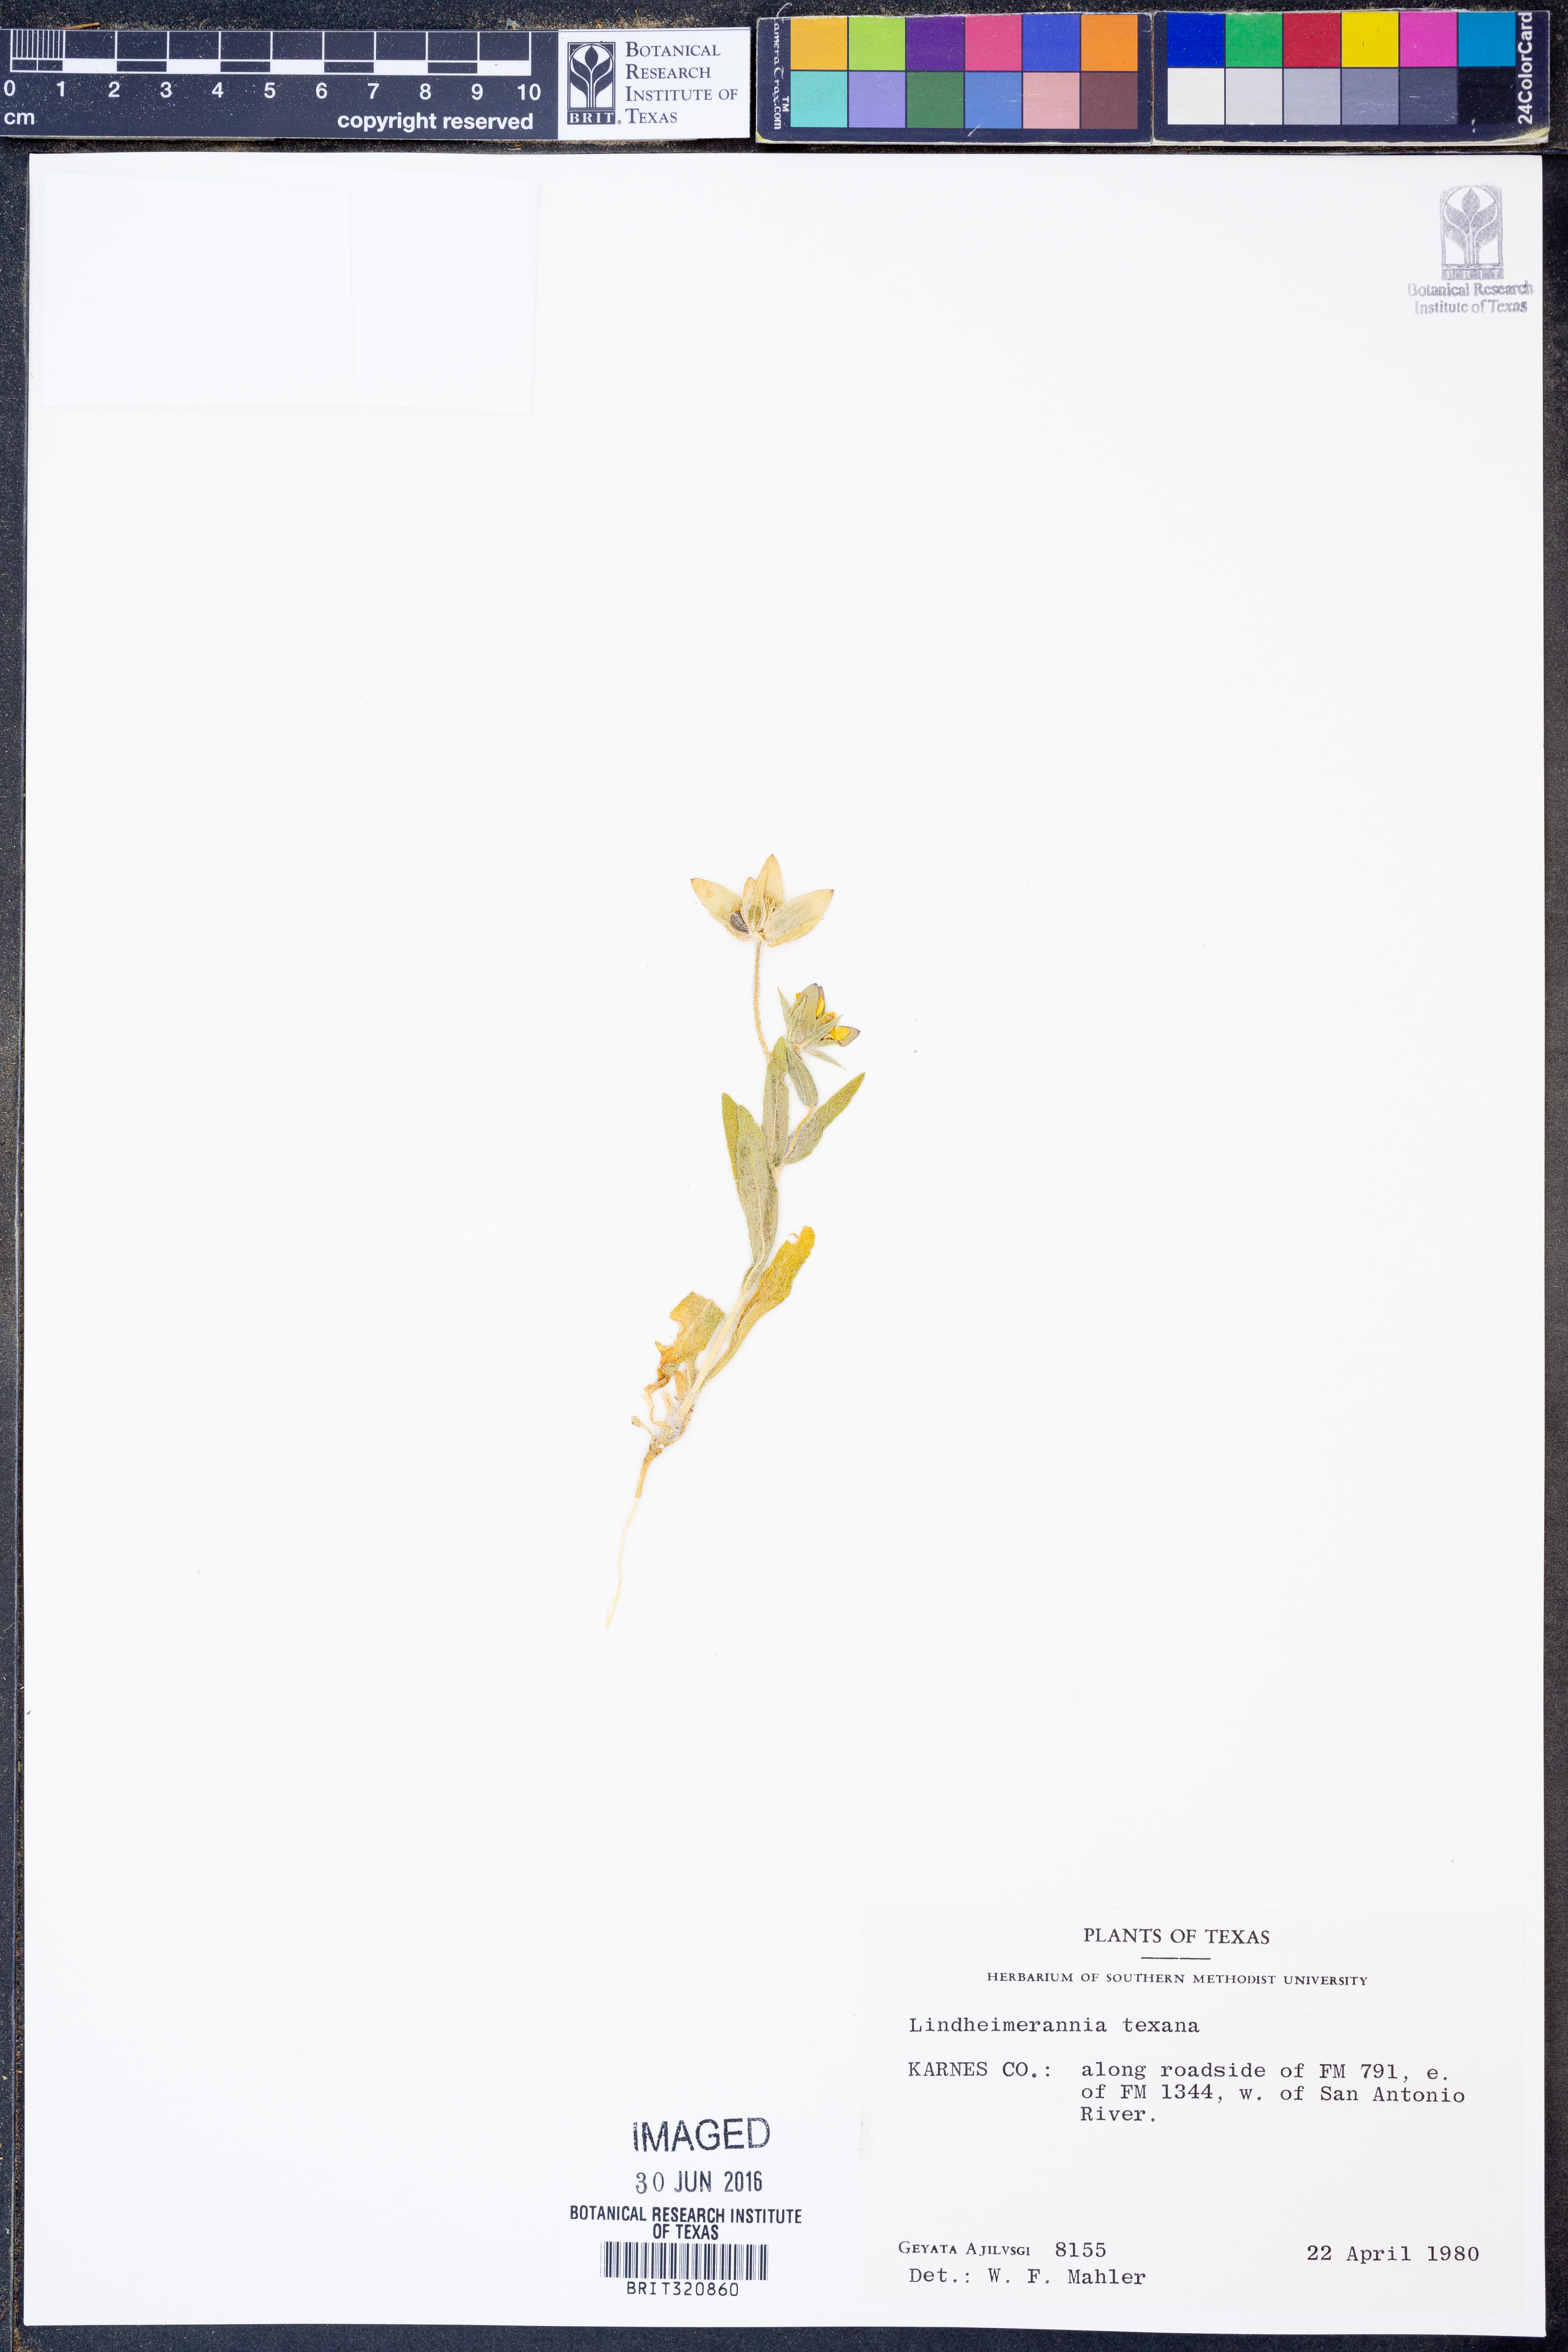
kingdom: Plantae
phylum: Tracheophyta
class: Magnoliopsida
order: Asterales
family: Asteraceae
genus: Lindheimera
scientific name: Lindheimera texana
